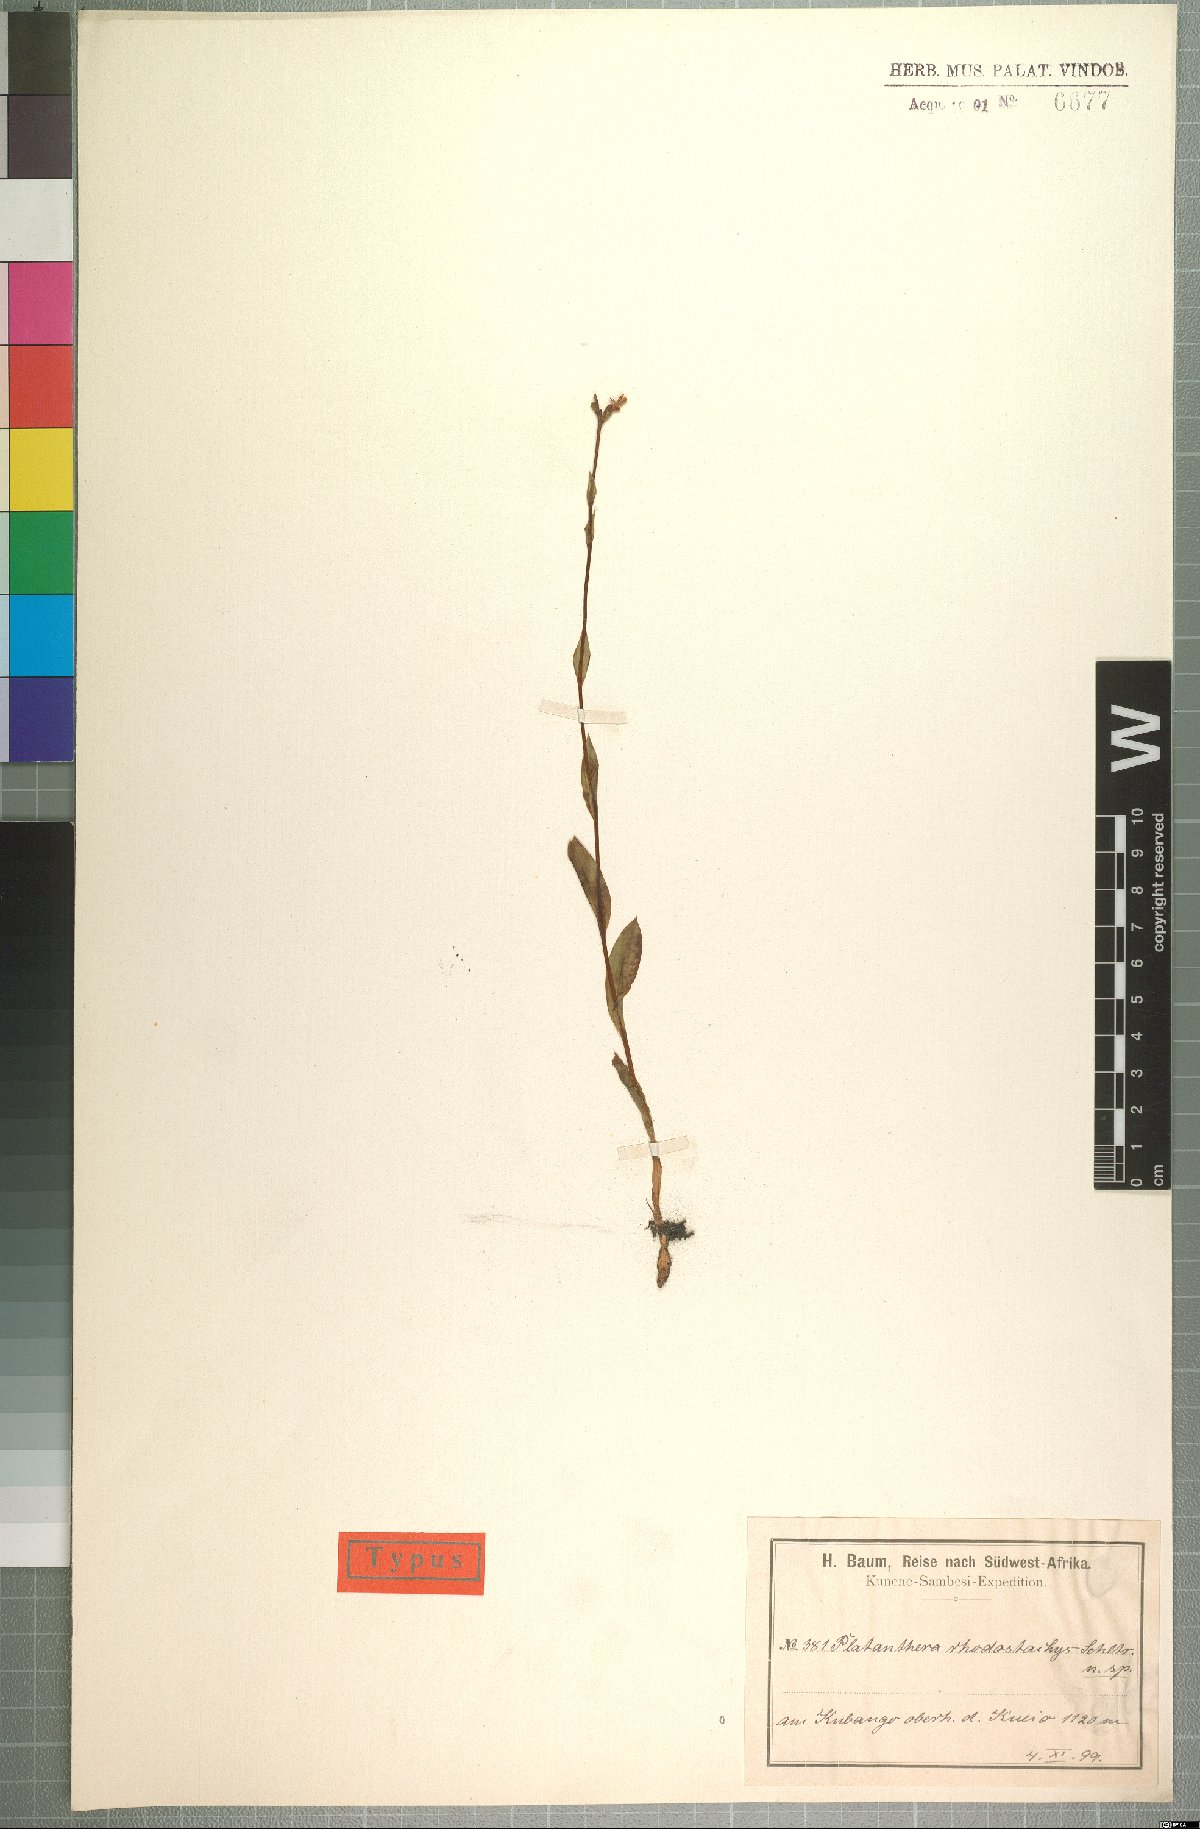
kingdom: Plantae
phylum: Tracheophyta
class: Liliopsida
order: Asparagales
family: Orchidaceae
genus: Brachycorythis
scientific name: Brachycorythis rhodostachys
